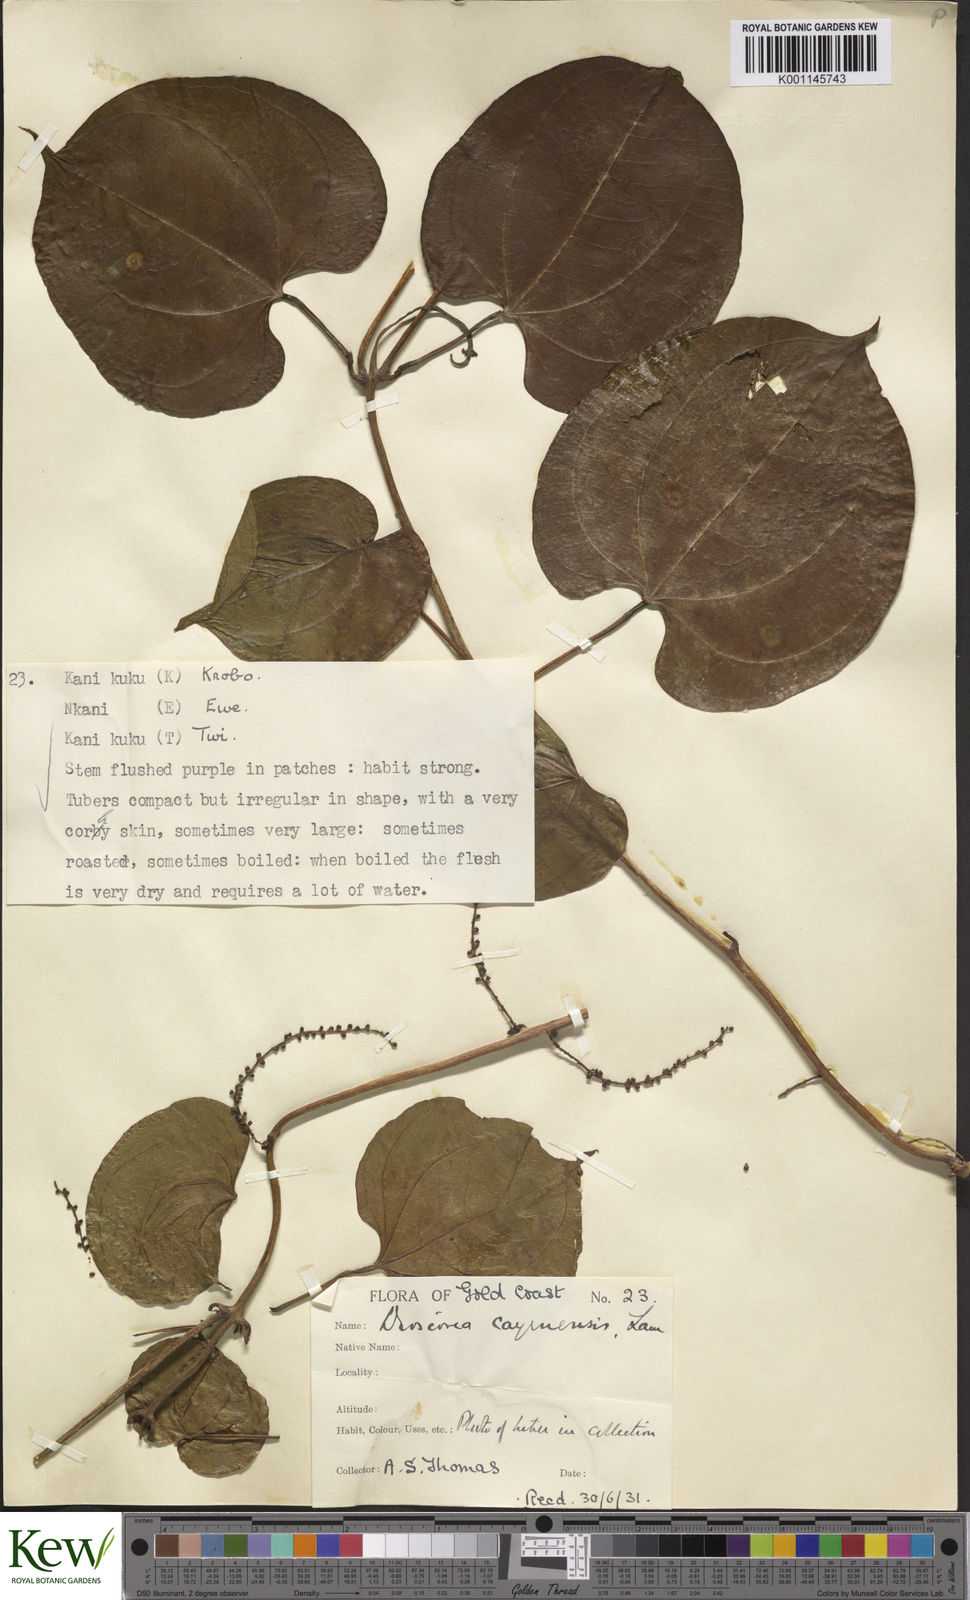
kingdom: Plantae
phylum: Tracheophyta
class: Liliopsida
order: Dioscoreales
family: Dioscoreaceae
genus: Dioscorea
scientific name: Dioscorea cayenensis
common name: Attoto yam
